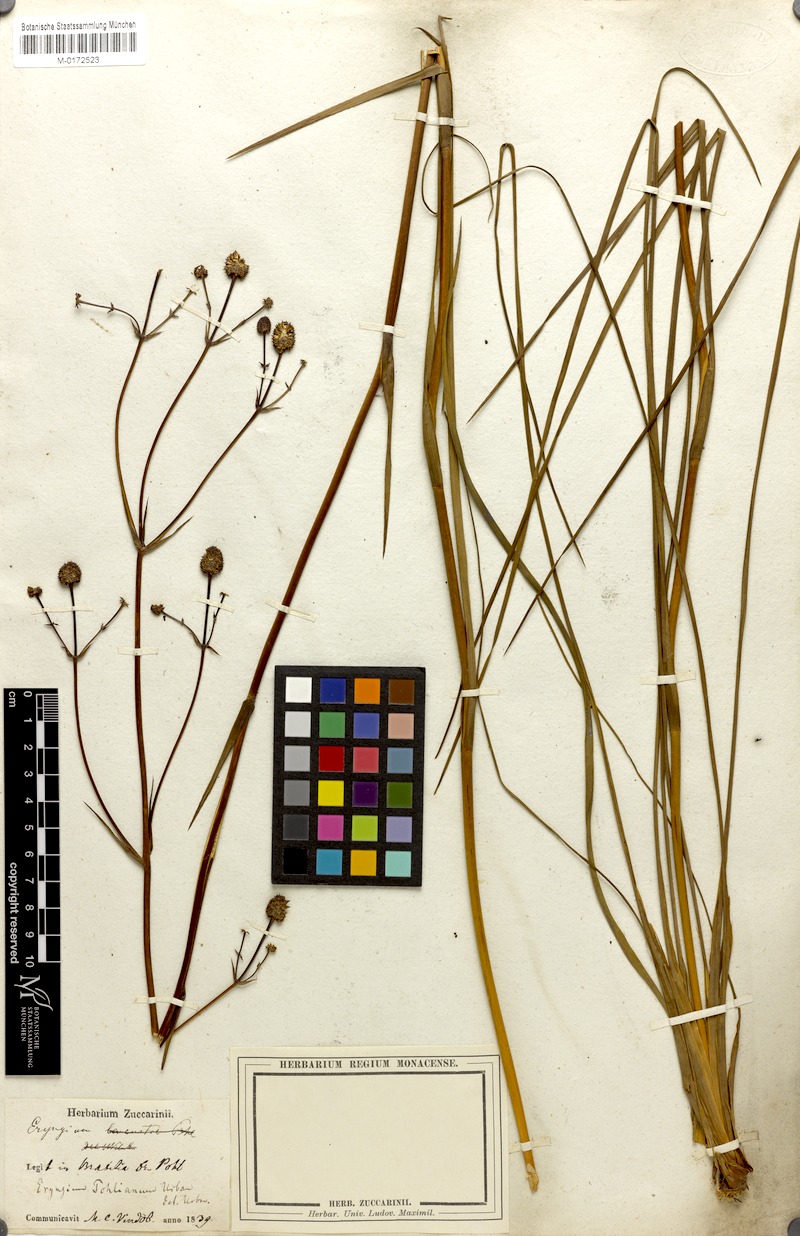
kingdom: Plantae
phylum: Tracheophyta
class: Magnoliopsida
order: Apiales
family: Apiaceae
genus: Eryngium
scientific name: Eryngium pohlianum
